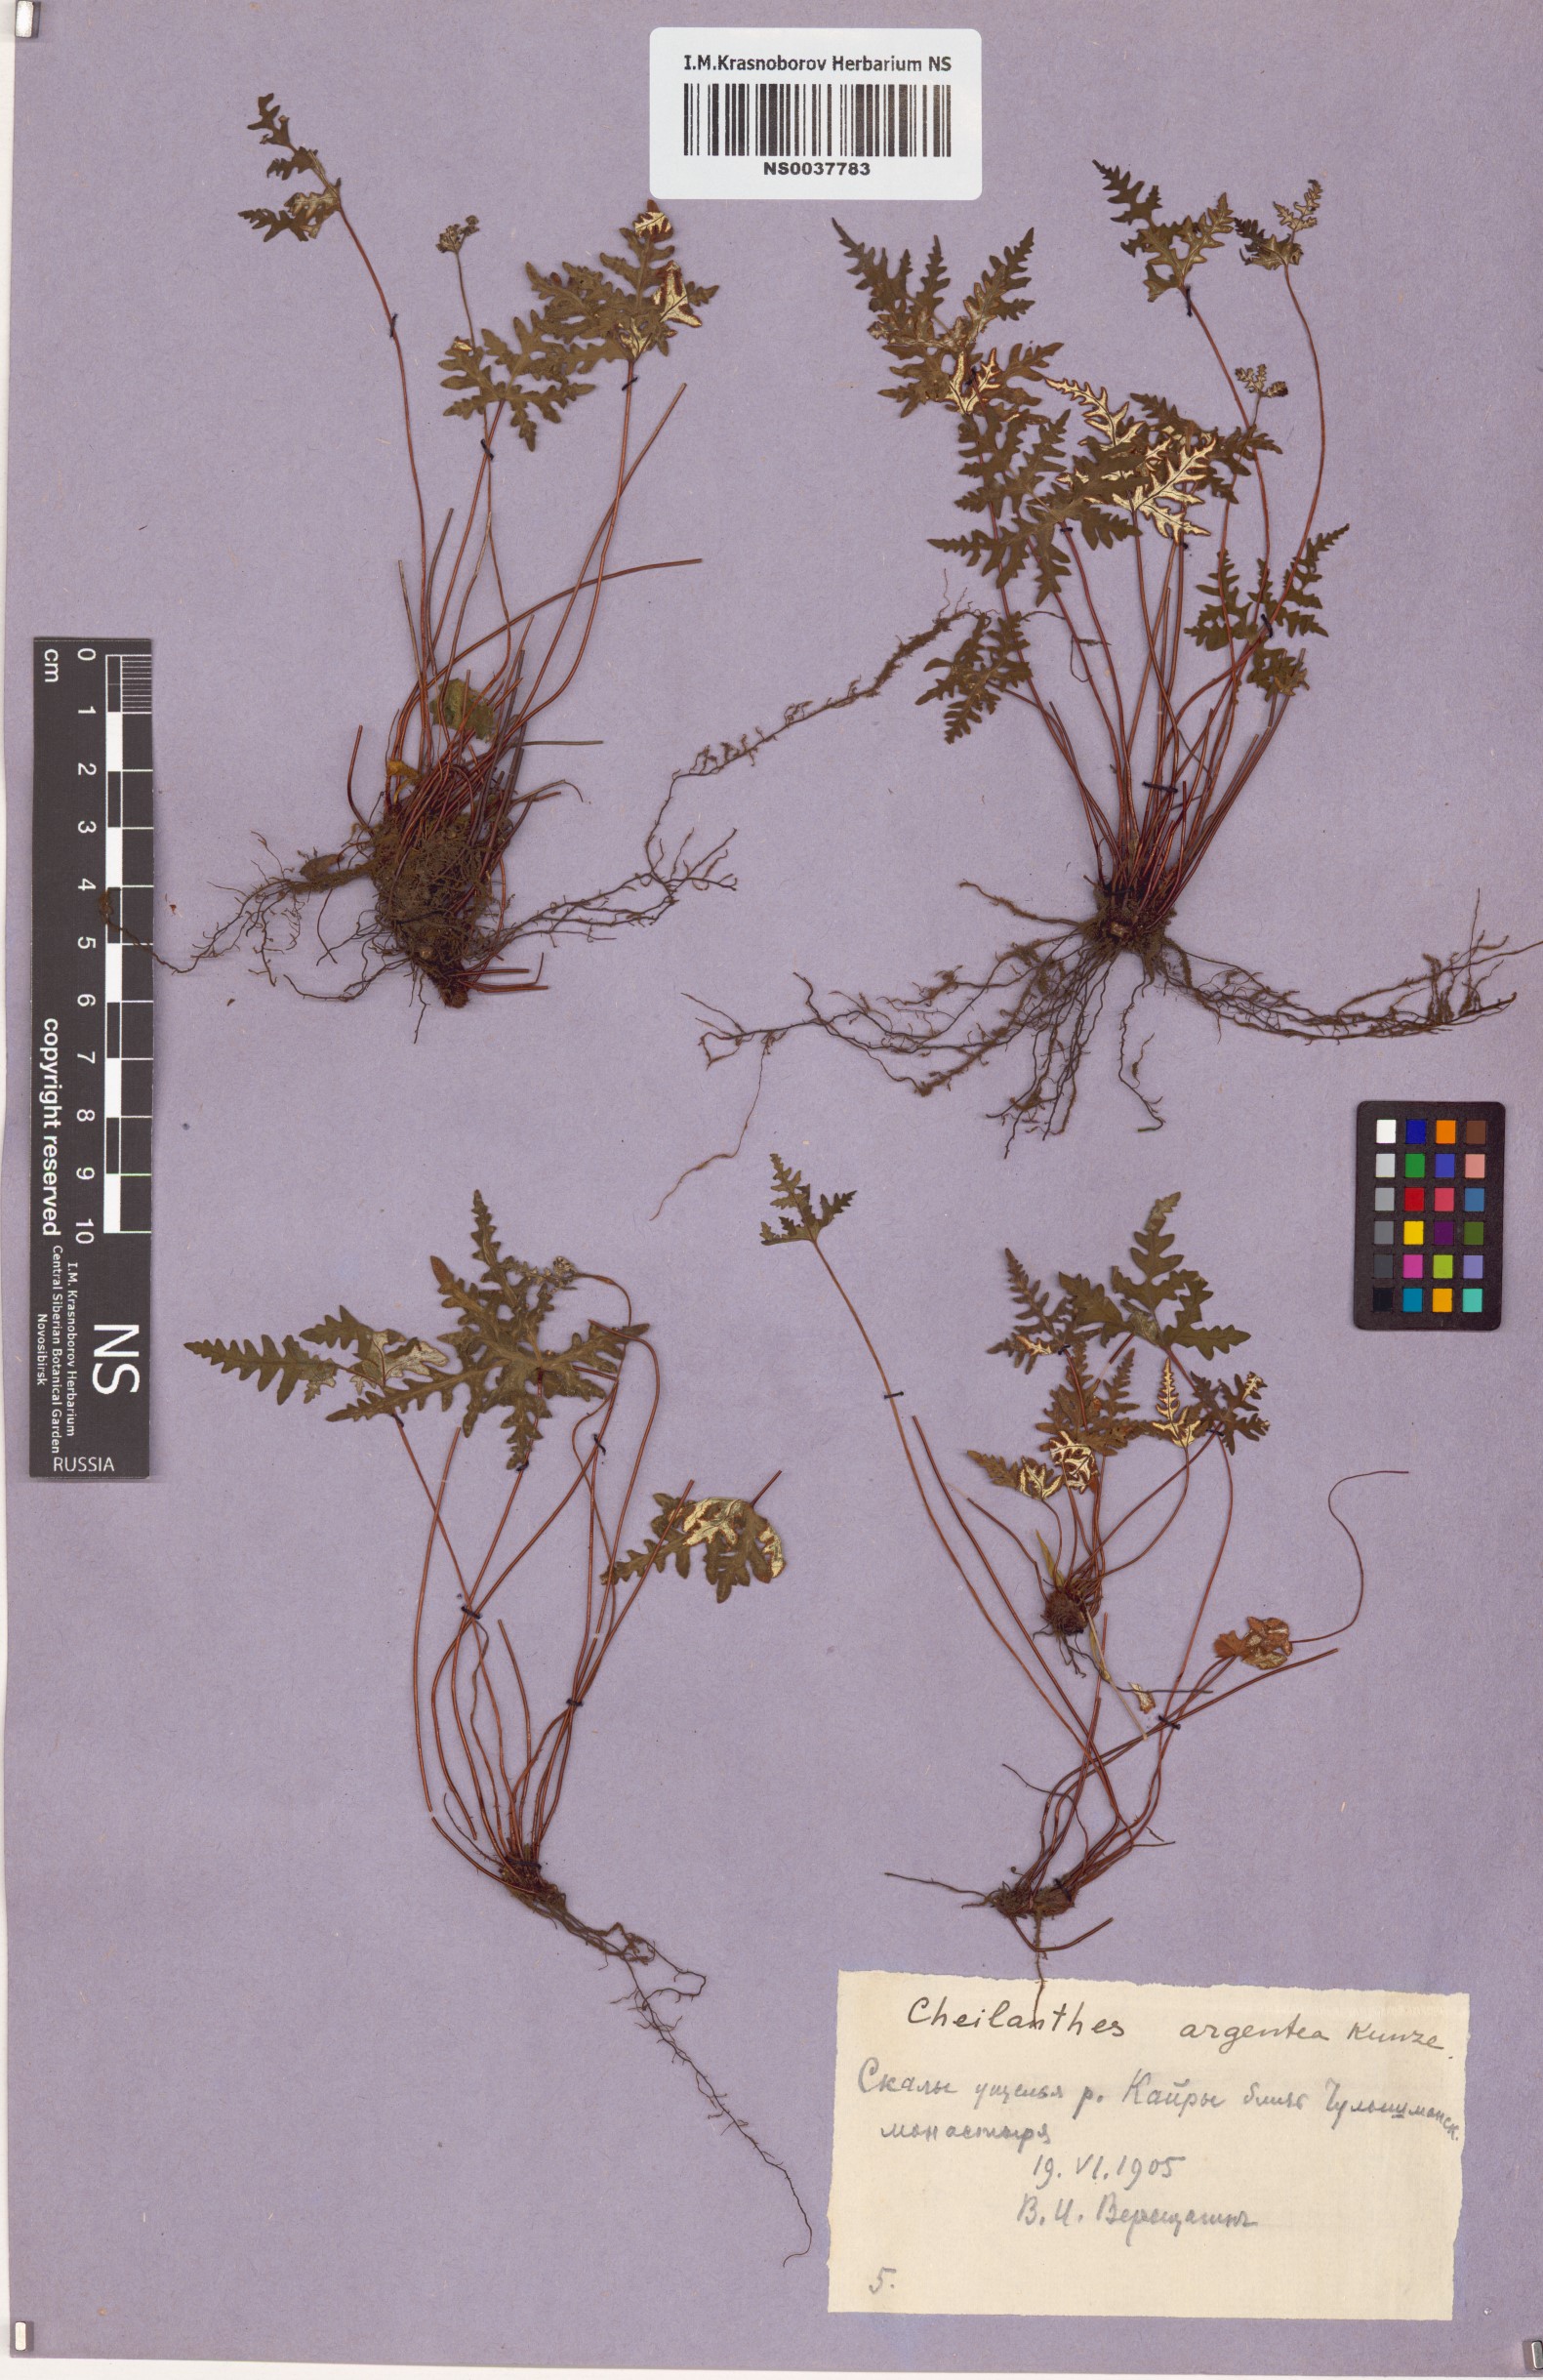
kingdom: Plantae
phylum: Tracheophyta
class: Polypodiopsida
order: Polypodiales
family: Pteridaceae
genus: Aleuritopteris
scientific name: Aleuritopteris argentea
